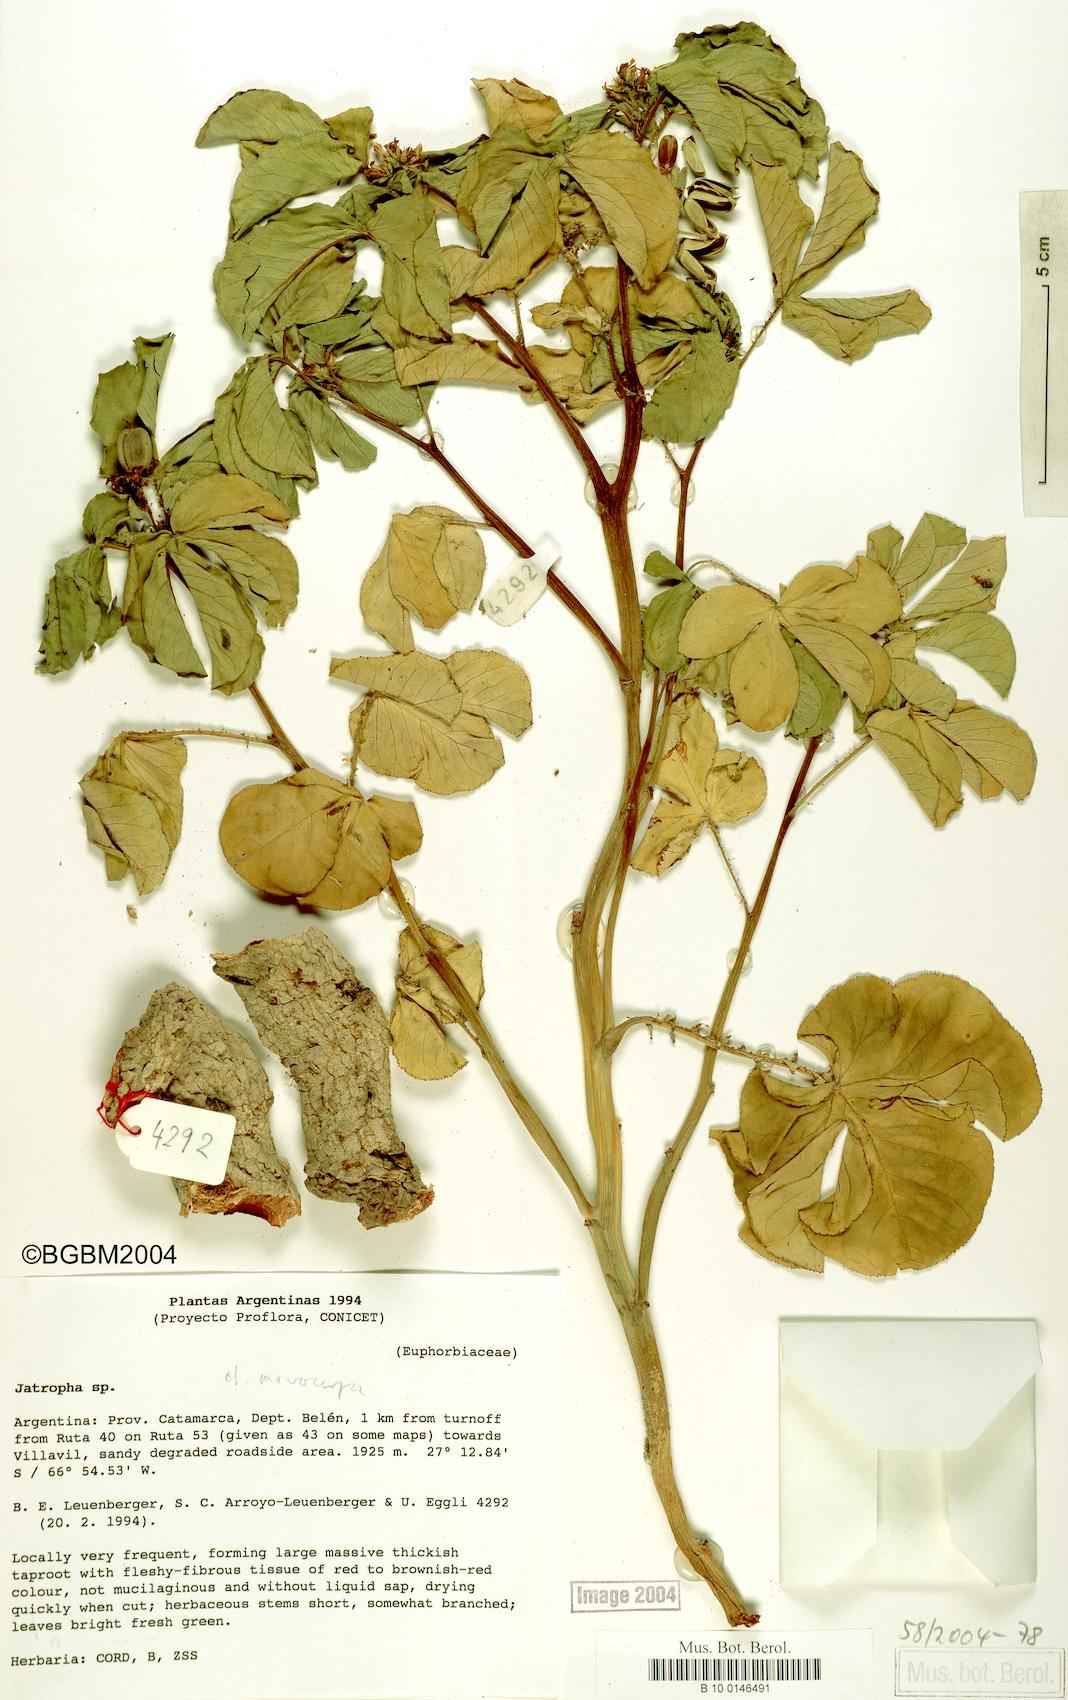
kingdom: Plantae
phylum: Tracheophyta
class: Magnoliopsida
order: Malpighiales
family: Euphorbiaceae
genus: Jatropha
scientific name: Jatropha
